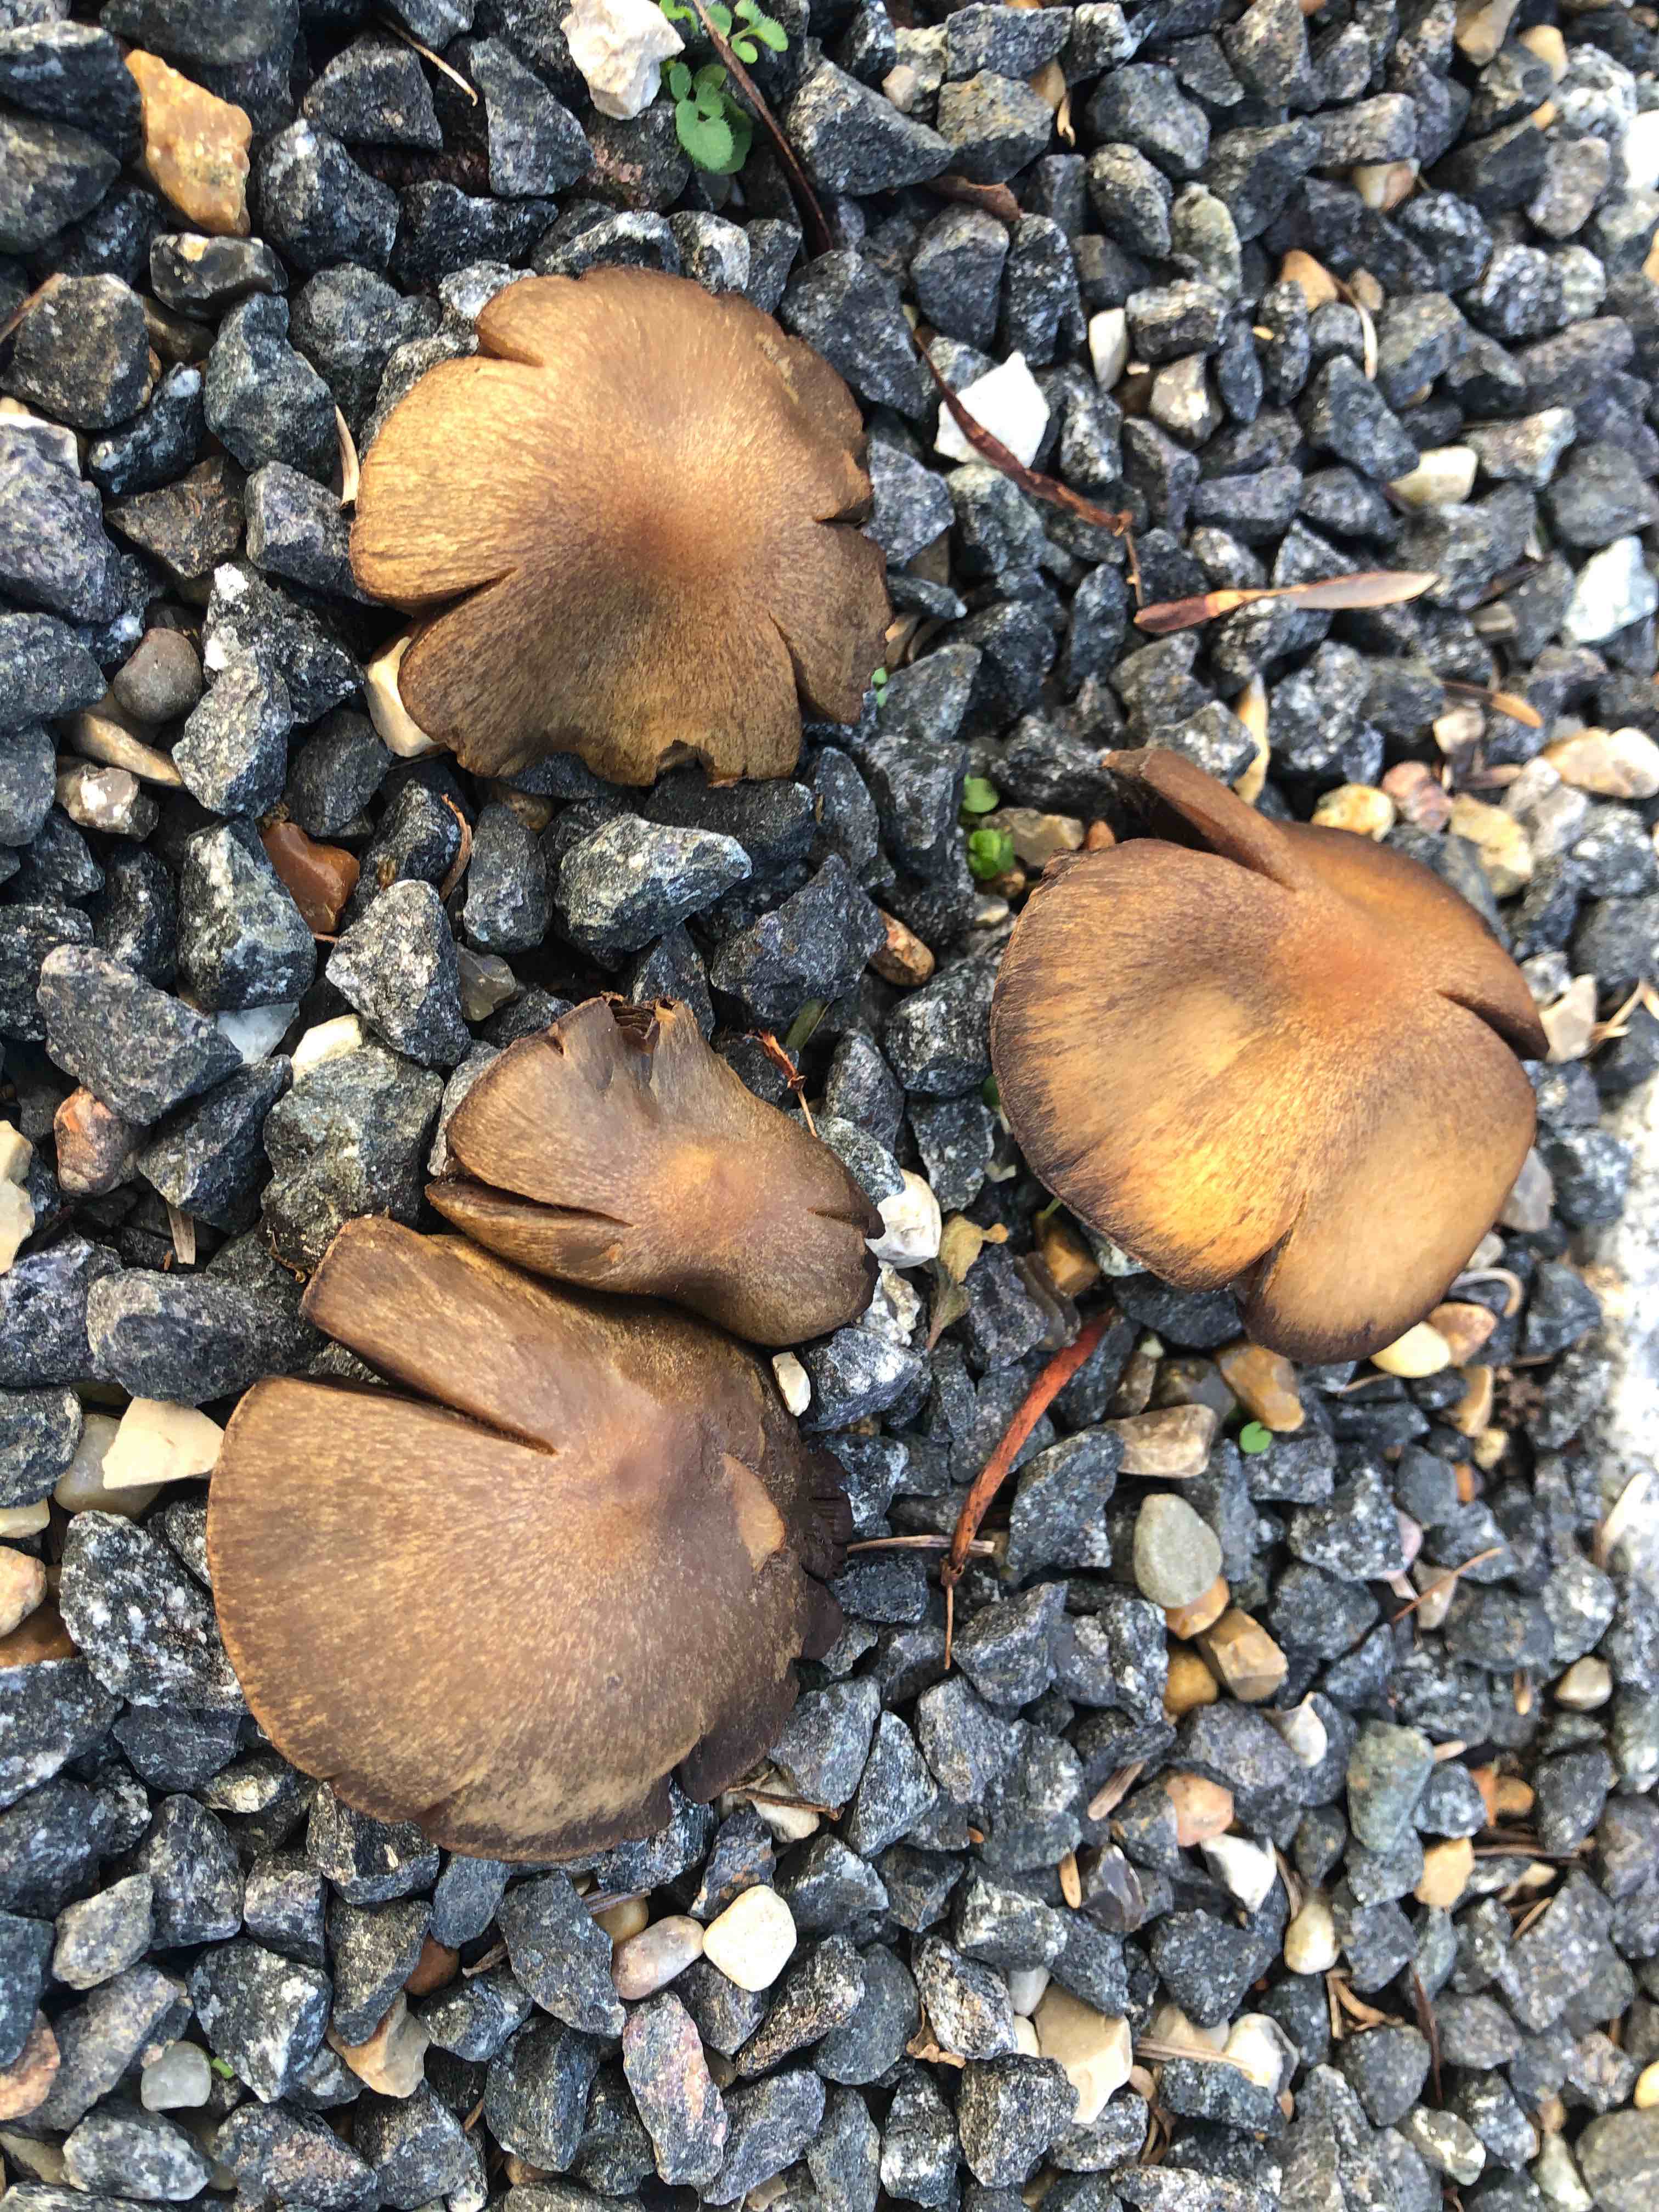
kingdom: Fungi
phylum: Basidiomycota
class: Agaricomycetes
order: Agaricales
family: Psathyrellaceae
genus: Lacrymaria
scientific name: Lacrymaria lacrymabunda
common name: grædende mørkhat
